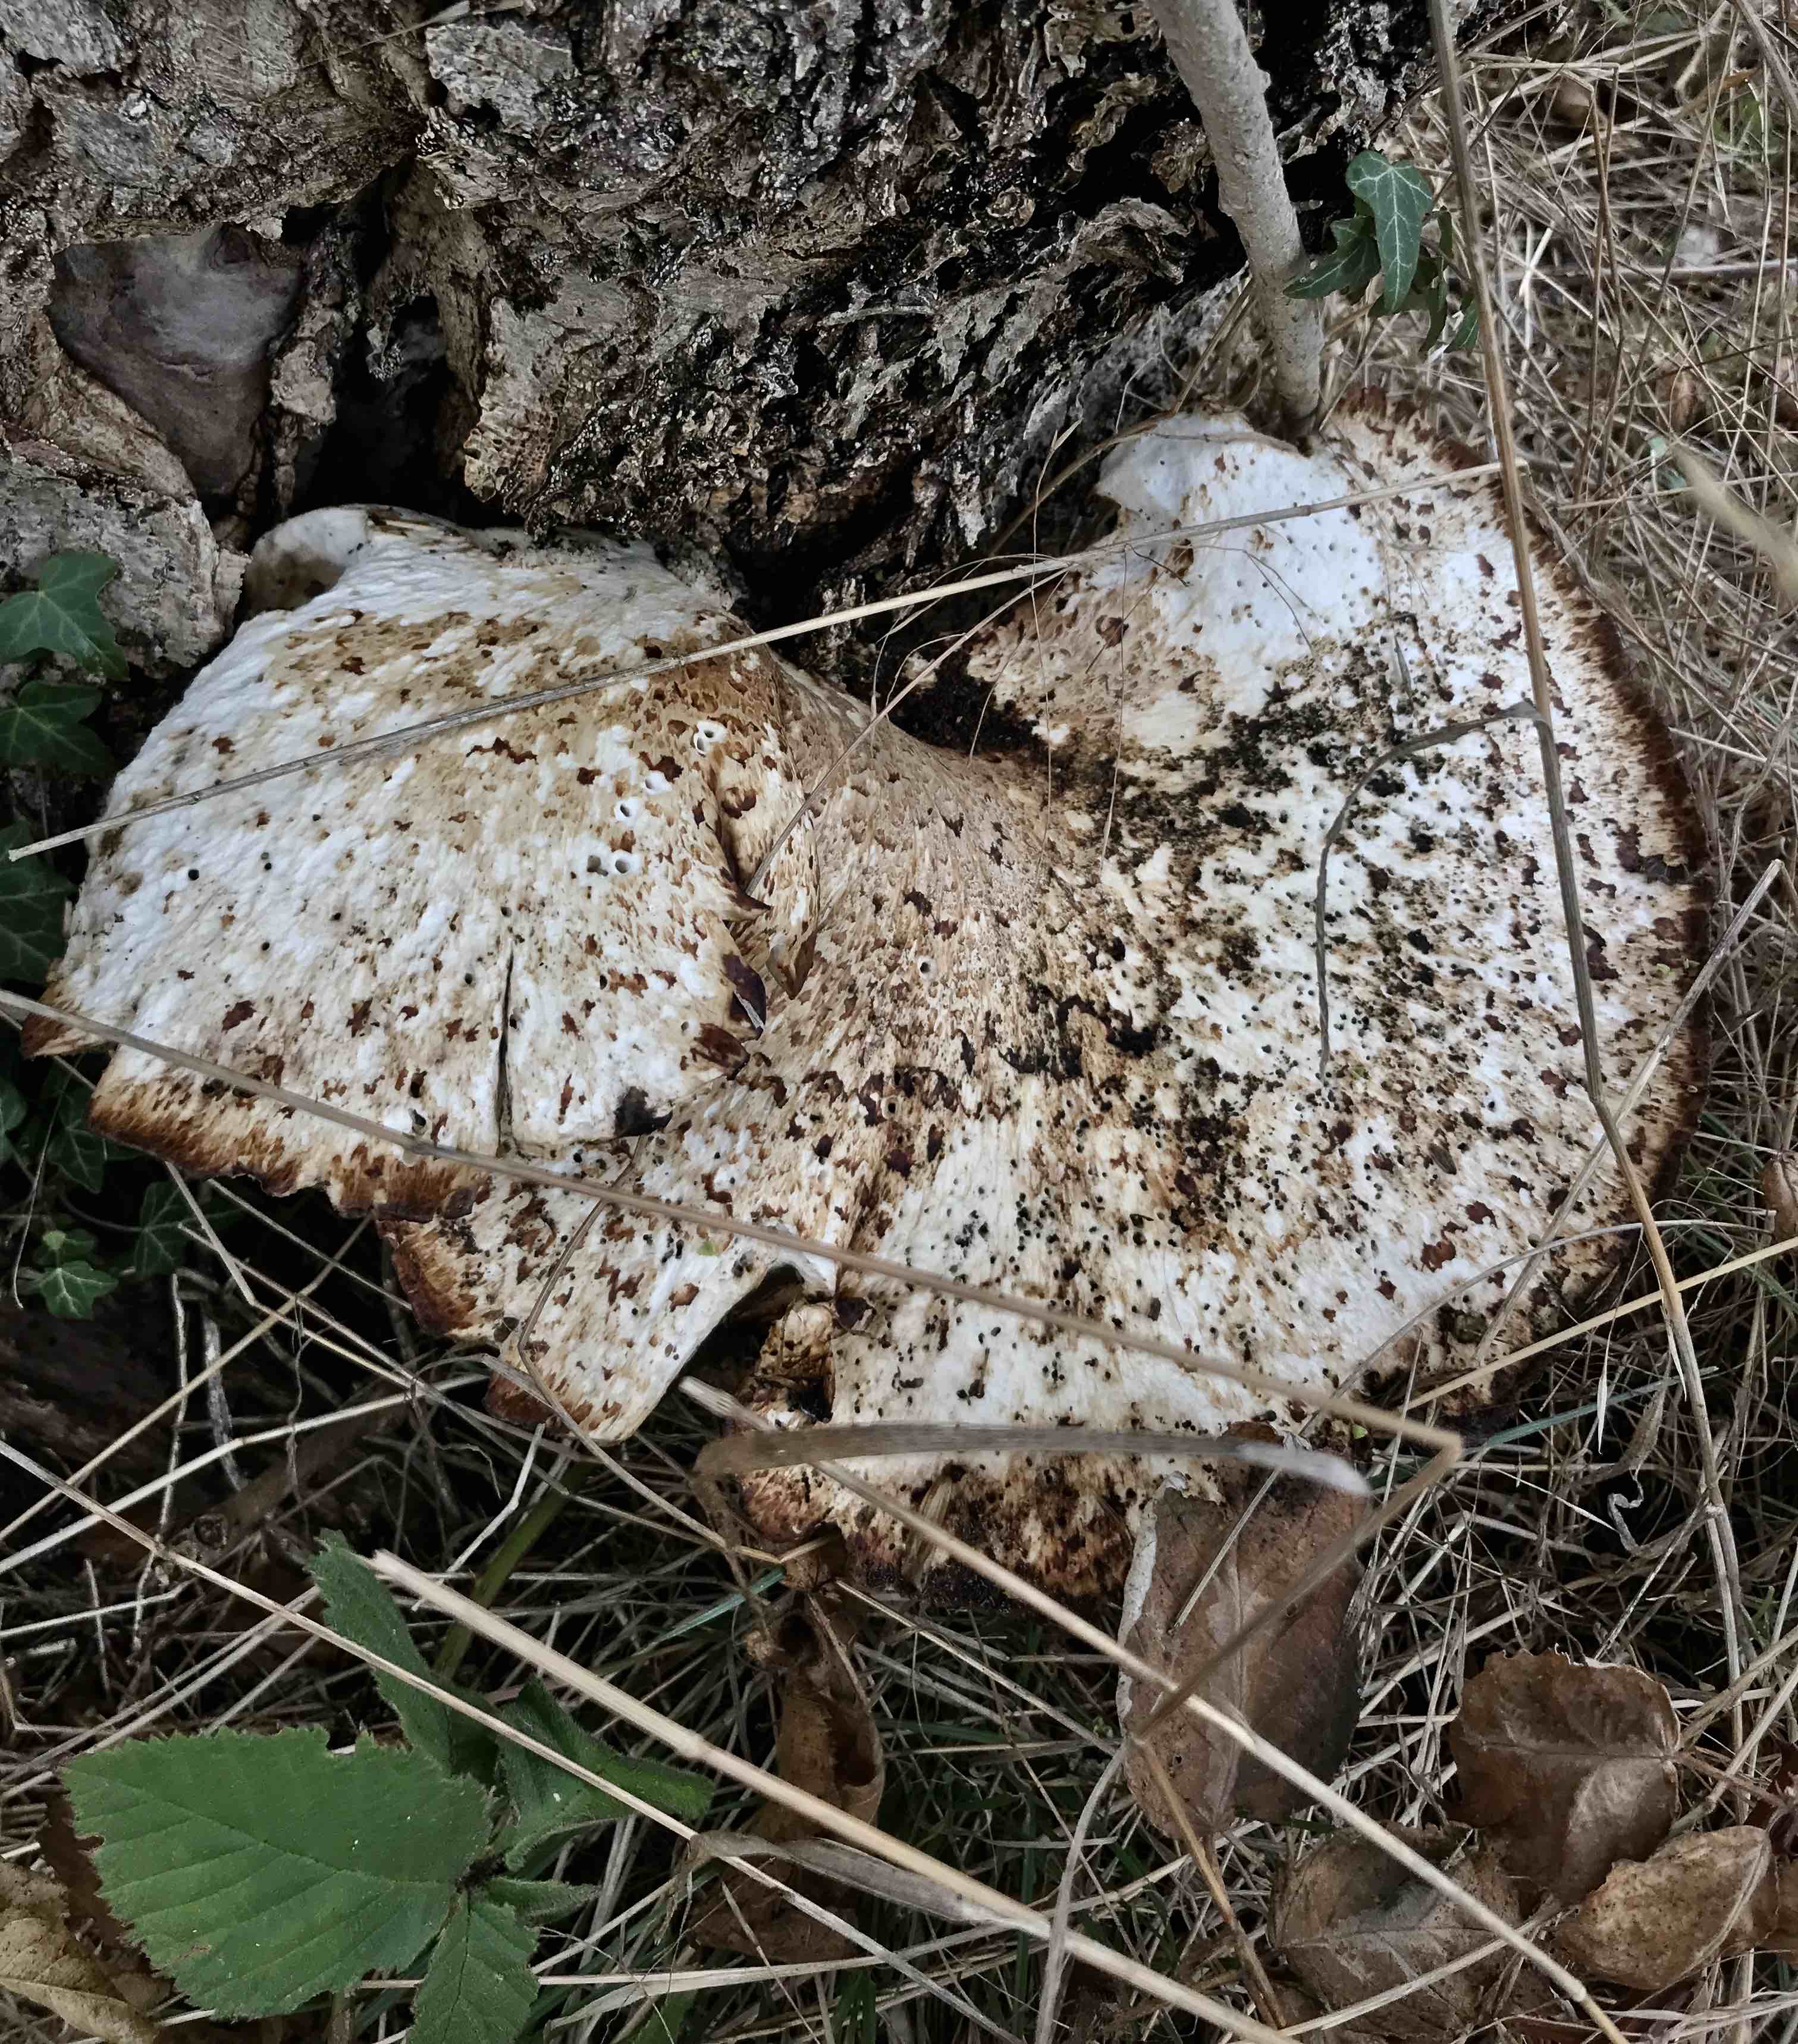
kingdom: Fungi
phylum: Basidiomycota
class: Agaricomycetes
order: Polyporales
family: Polyporaceae
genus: Cerioporus
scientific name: Cerioporus squamosus
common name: skællet stilkporesvamp
